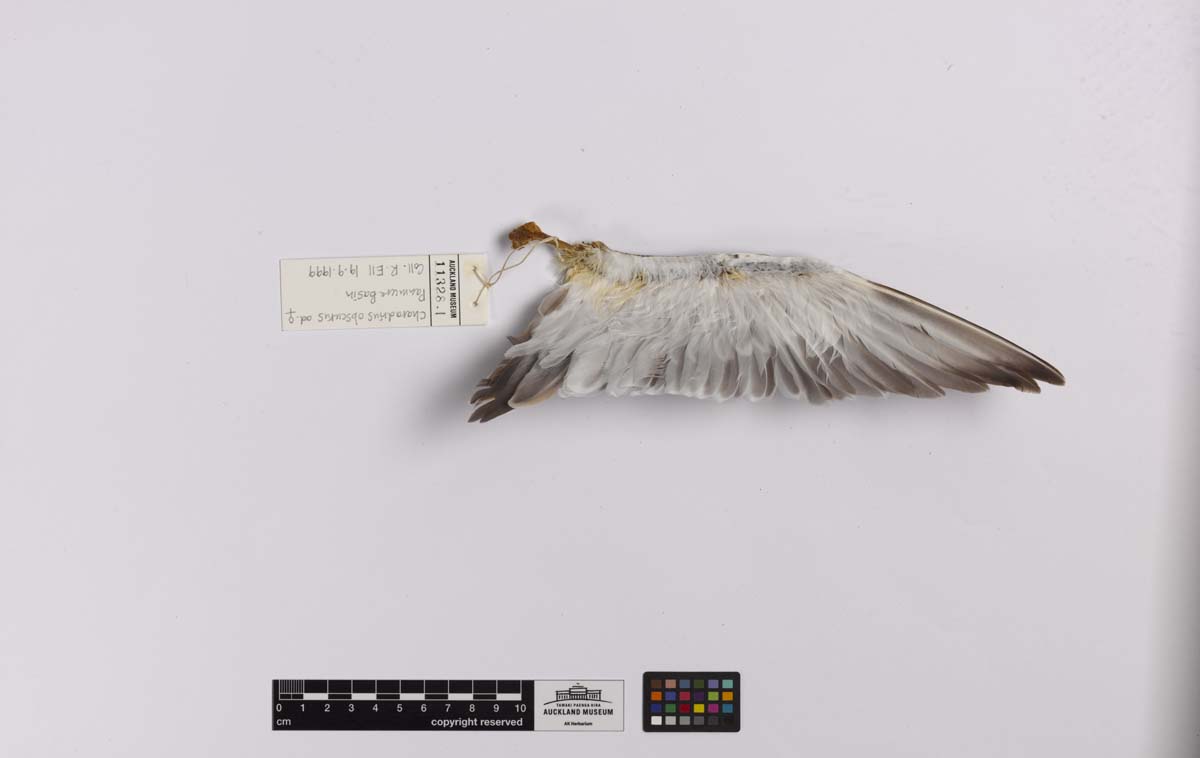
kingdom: Animalia
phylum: Chordata
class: Aves
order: Charadriiformes
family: Charadriidae
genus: Charadrius
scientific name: Charadrius obscurus
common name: New zealand plover
